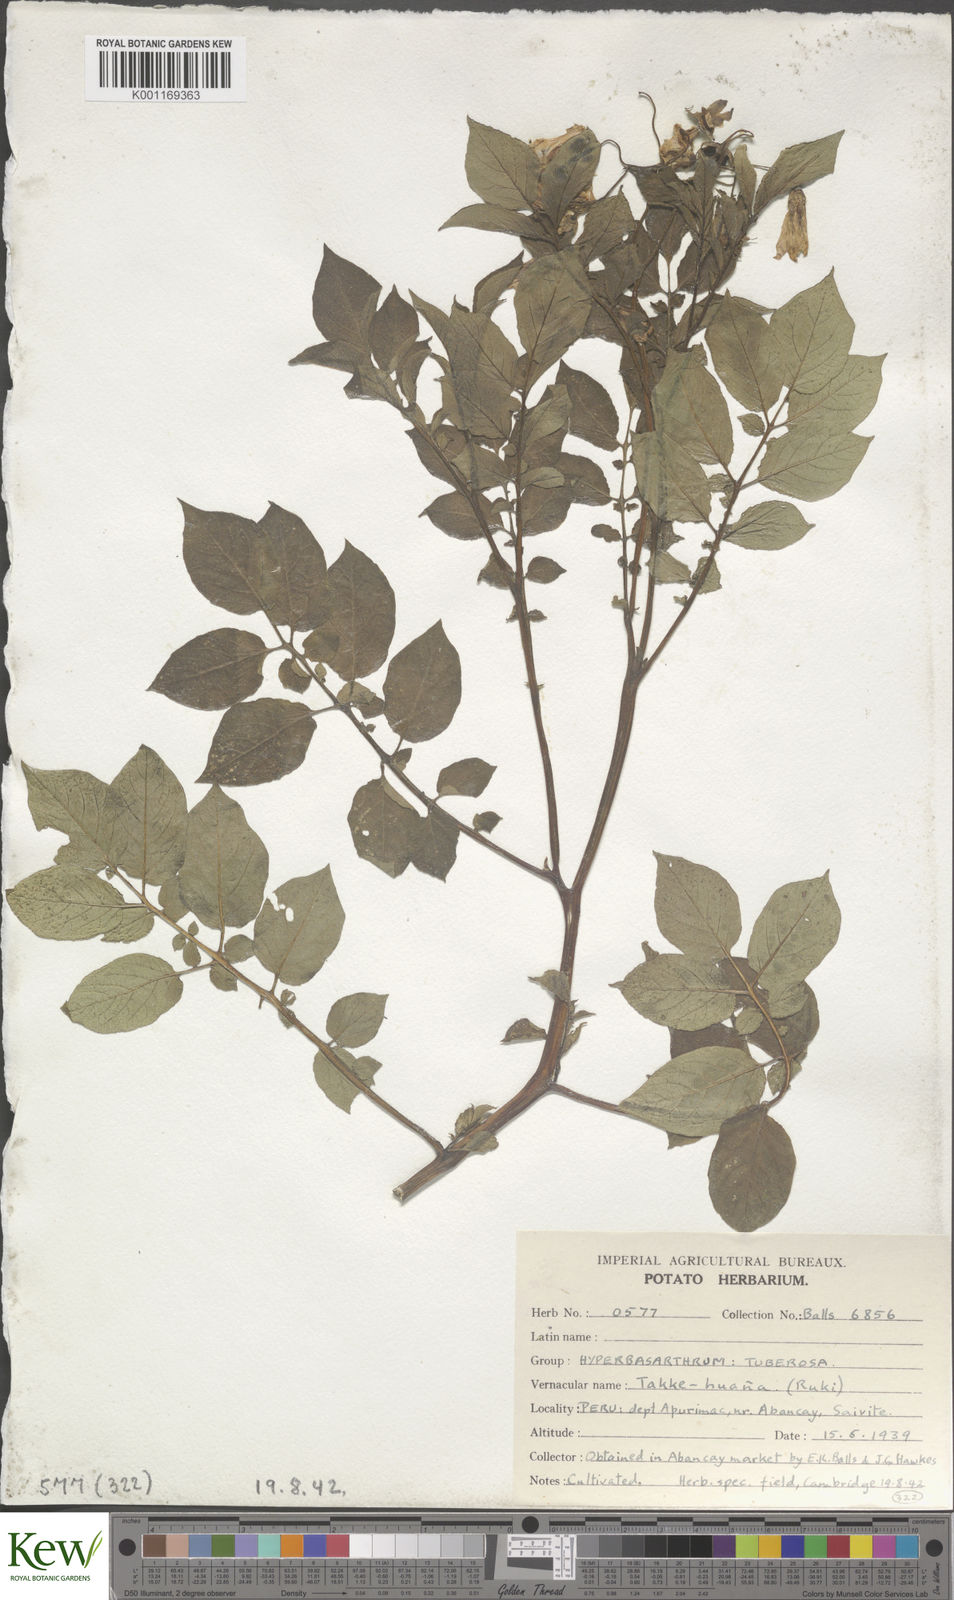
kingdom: Plantae
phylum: Tracheophyta
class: Magnoliopsida
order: Solanales
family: Solanaceae
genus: Solanum
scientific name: Solanum chaucha
